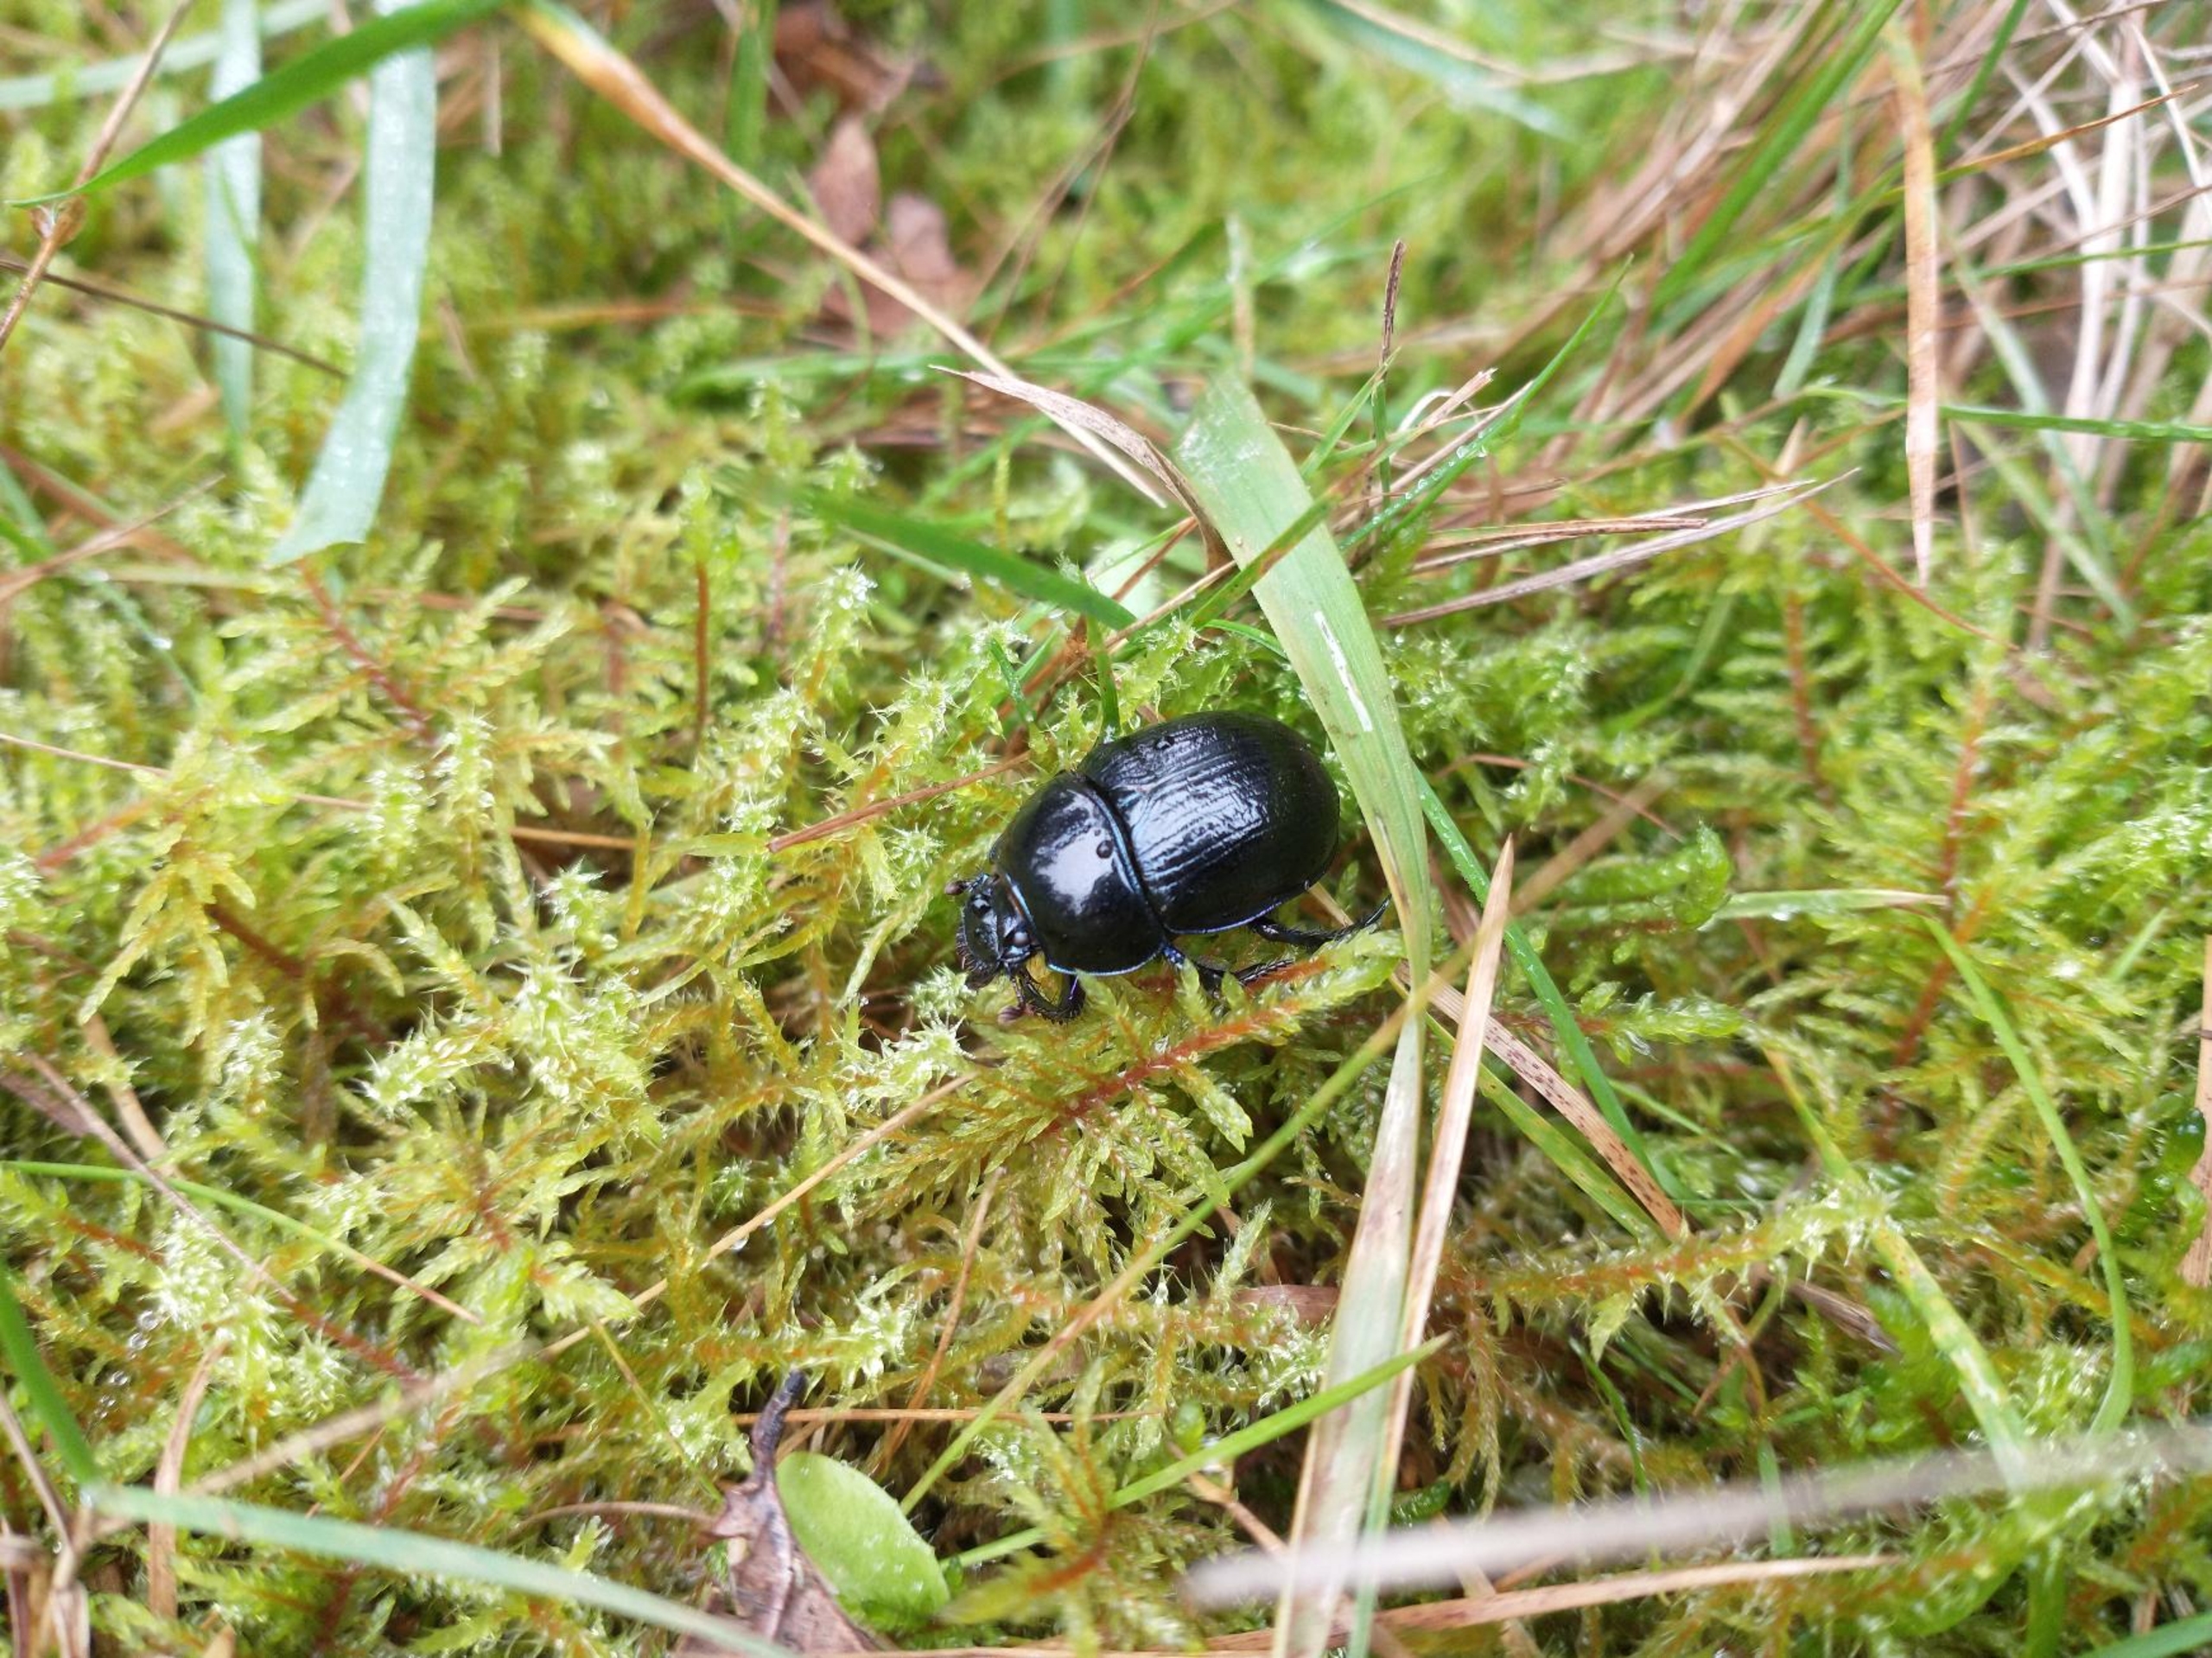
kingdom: Animalia
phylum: Arthropoda
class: Insecta
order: Coleoptera
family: Geotrupidae
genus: Anoplotrupes
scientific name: Anoplotrupes stercorosus
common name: Skovskarnbasse
